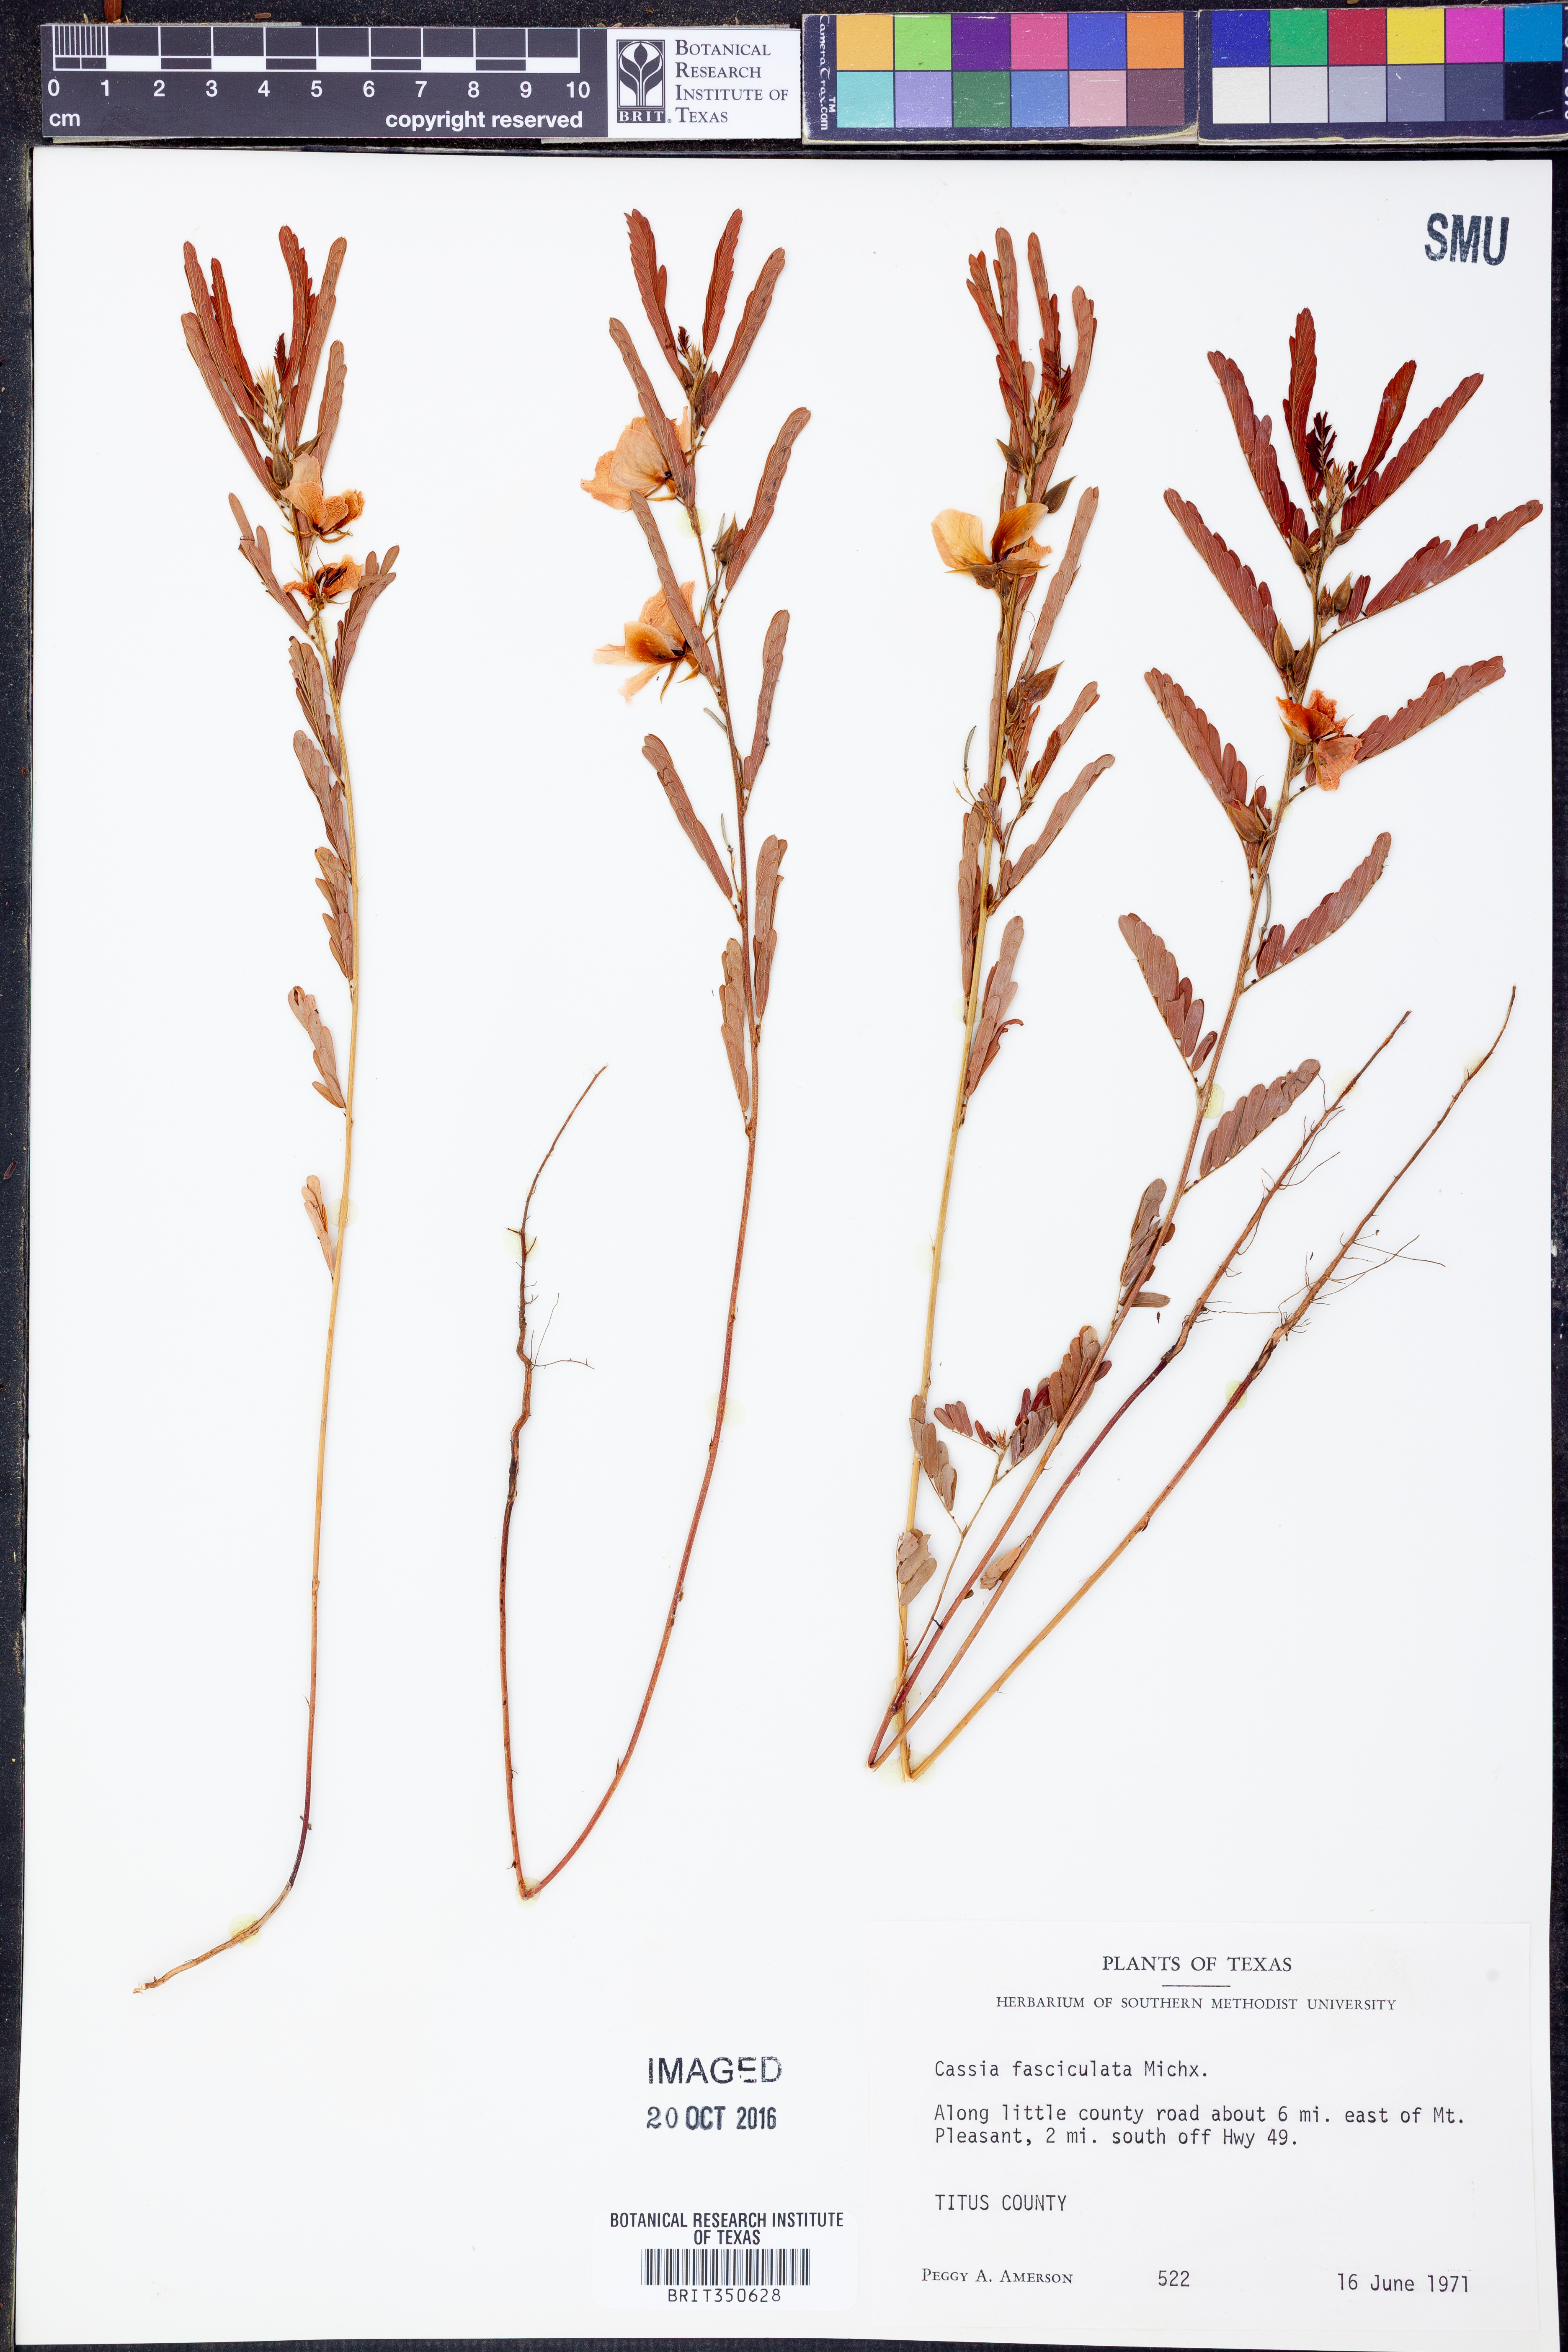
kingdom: Plantae
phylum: Tracheophyta
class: Magnoliopsida
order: Fabales
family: Fabaceae
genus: Chamaecrista
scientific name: Chamaecrista fasciculata
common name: Golden cassia
